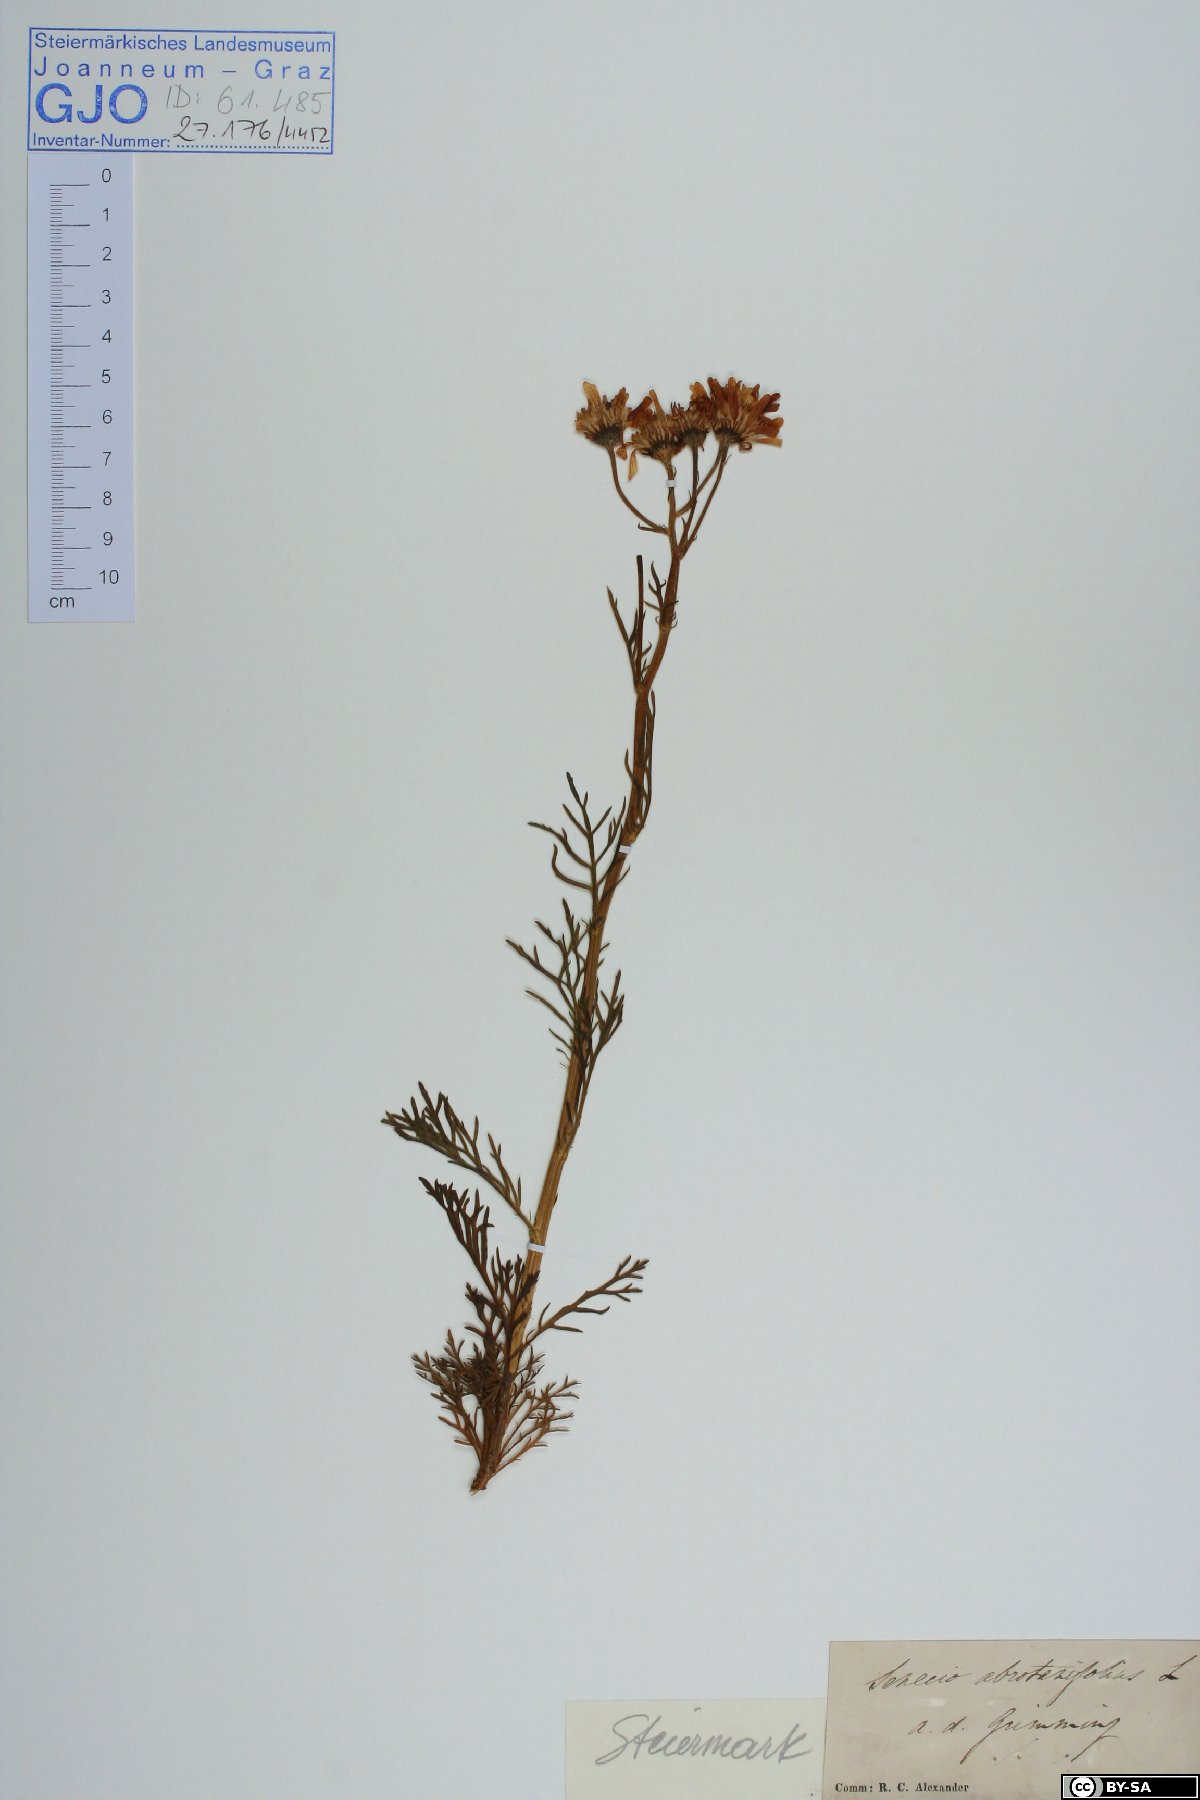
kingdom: Plantae
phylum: Tracheophyta
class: Magnoliopsida
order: Asterales
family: Asteraceae
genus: Jacobaea
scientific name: Jacobaea abrotanifolia
